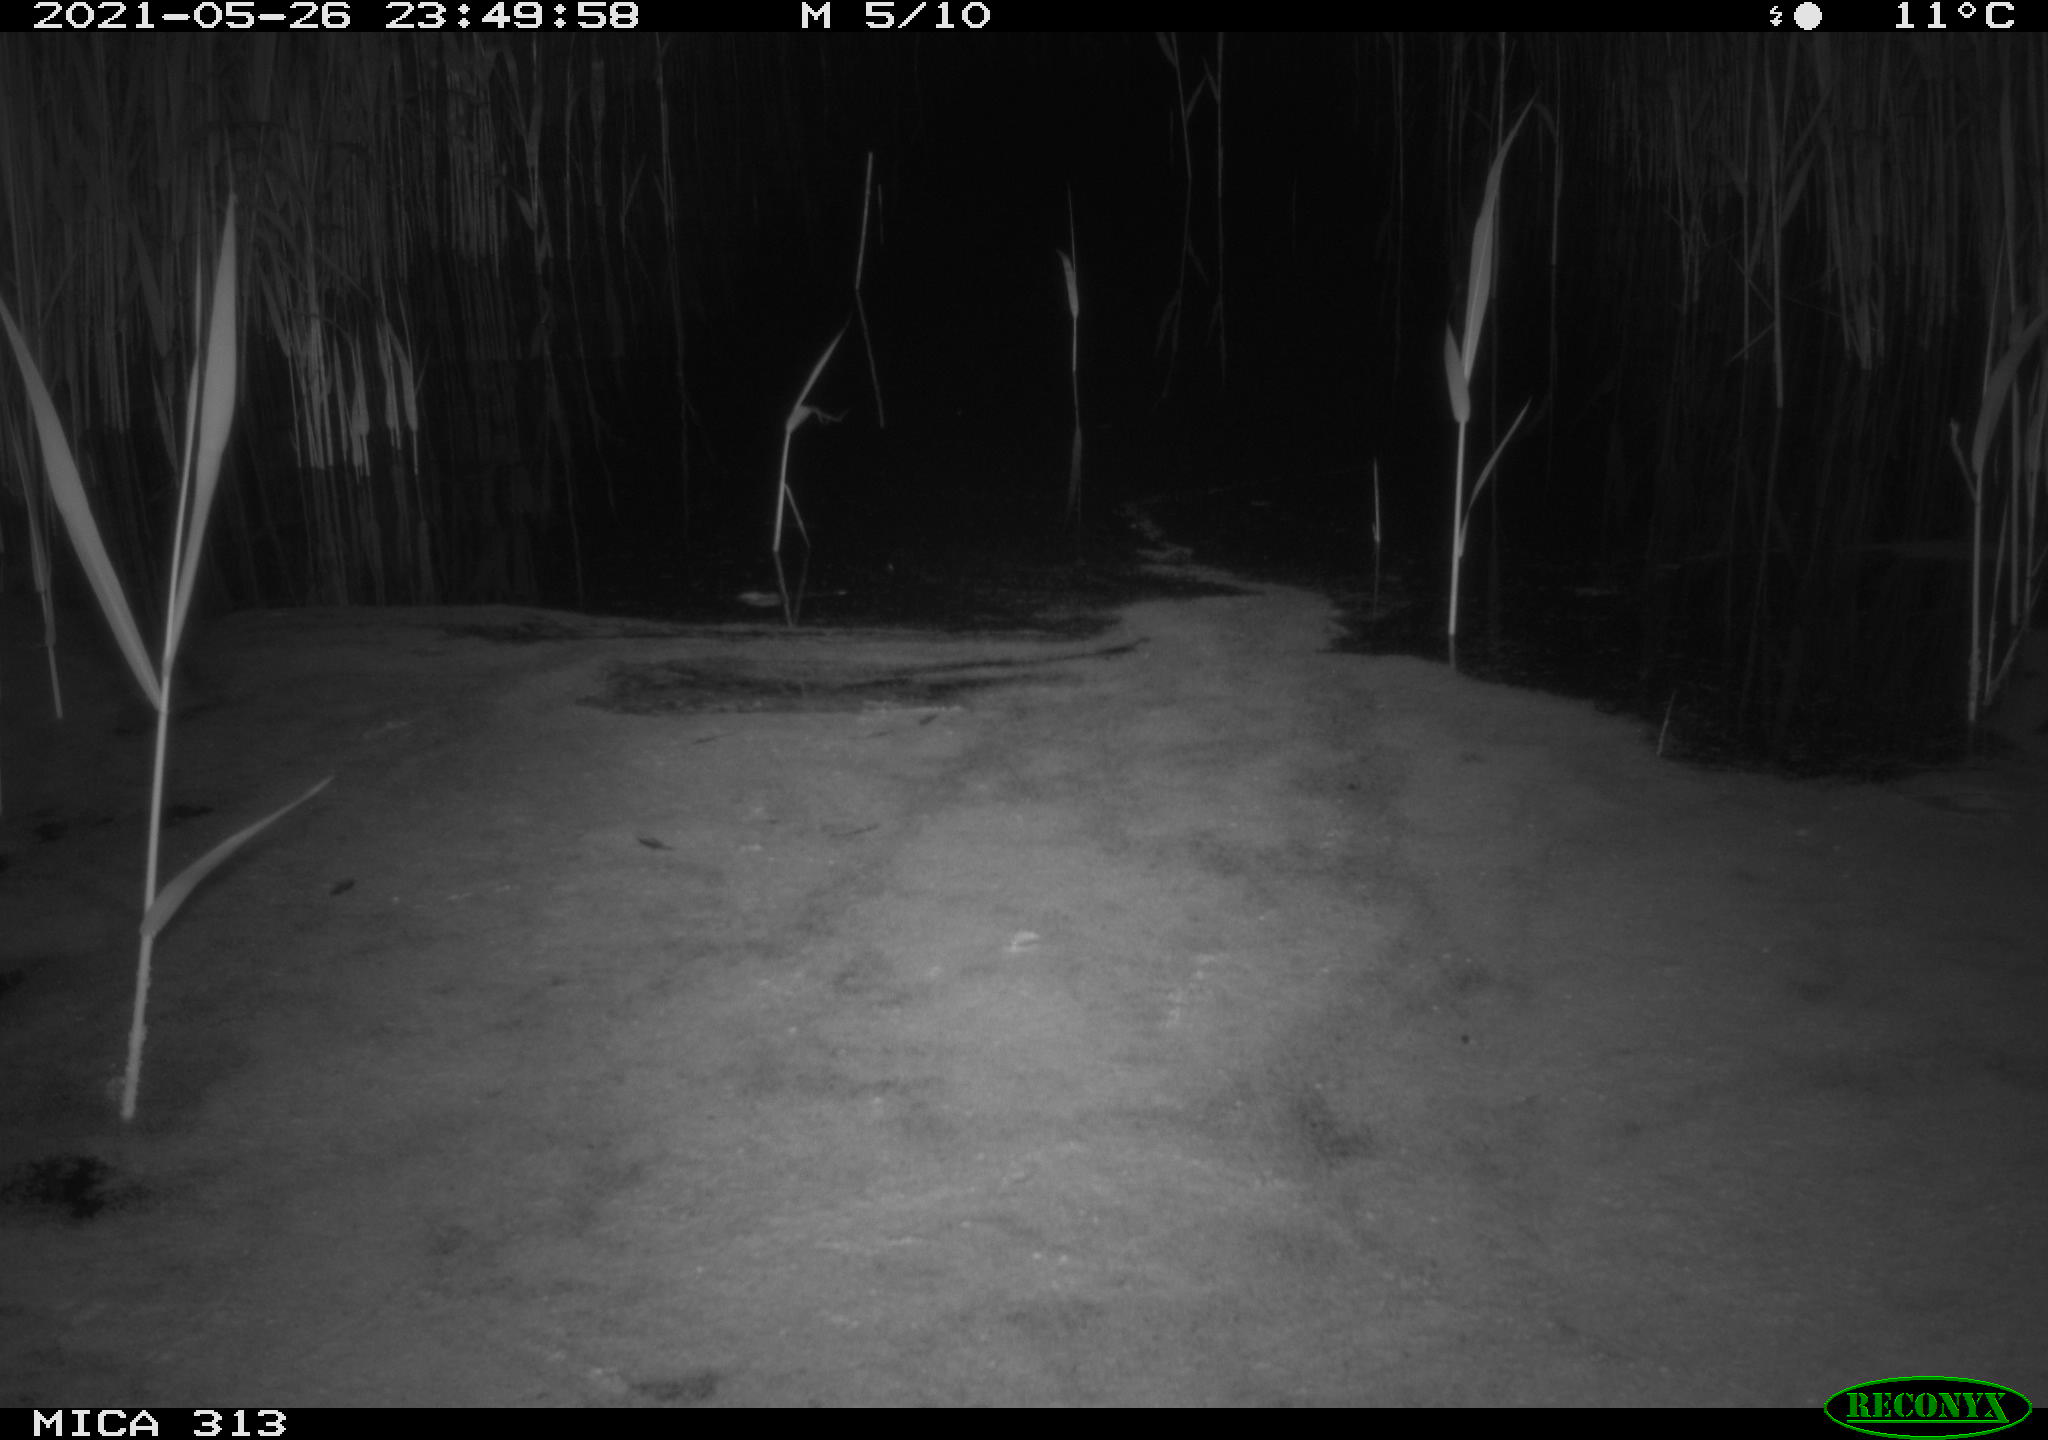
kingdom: Animalia
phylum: Chordata
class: Aves
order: Anseriformes
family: Anatidae
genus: Anas
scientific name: Anas platyrhynchos
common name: Mallard
